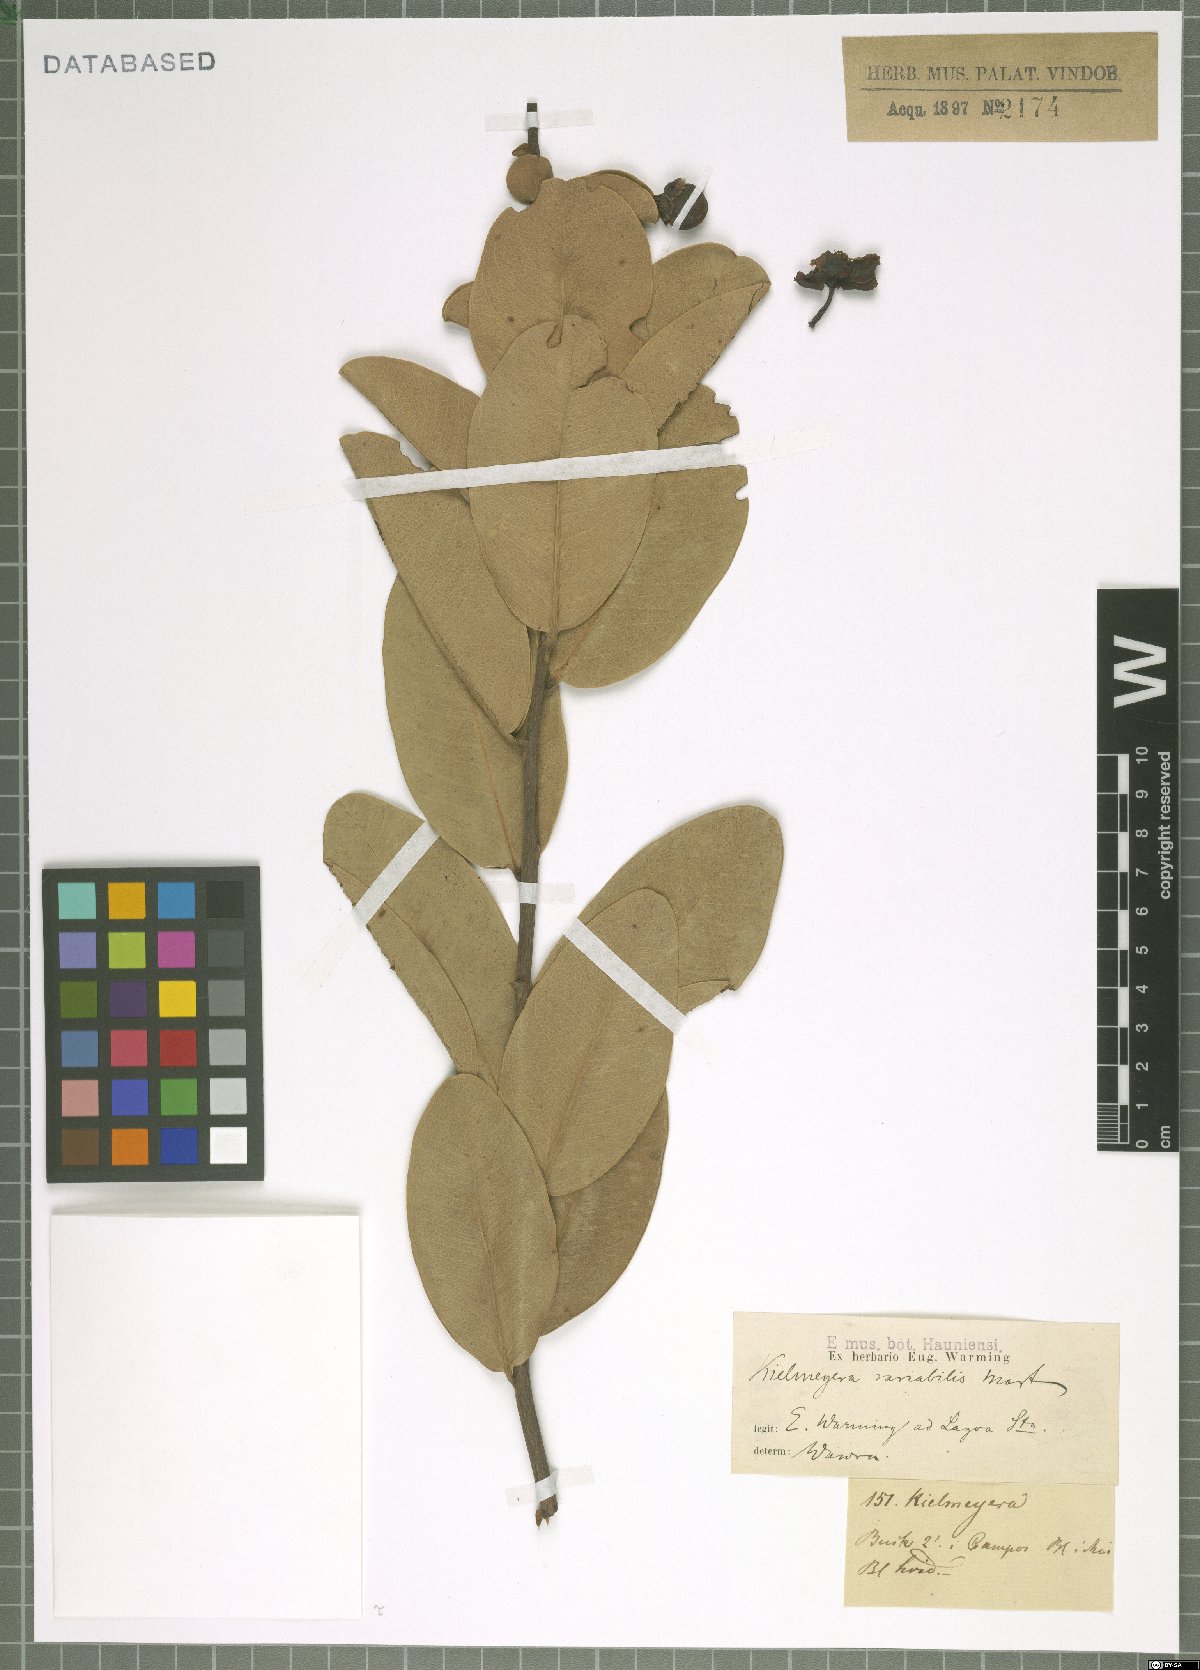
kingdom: Plantae
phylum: Tracheophyta
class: Magnoliopsida
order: Malpighiales
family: Calophyllaceae
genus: Kielmeyera
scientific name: Kielmeyera variabilis
